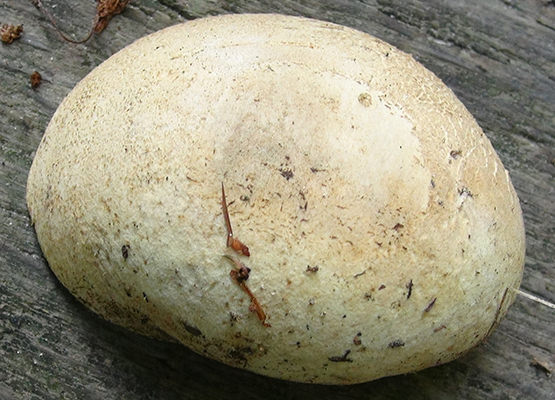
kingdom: Fungi
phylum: Basidiomycota
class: Agaricomycetes
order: Boletales
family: Sclerodermataceae
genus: Scleroderma
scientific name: Scleroderma citrinum
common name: almindelig bruskbold
